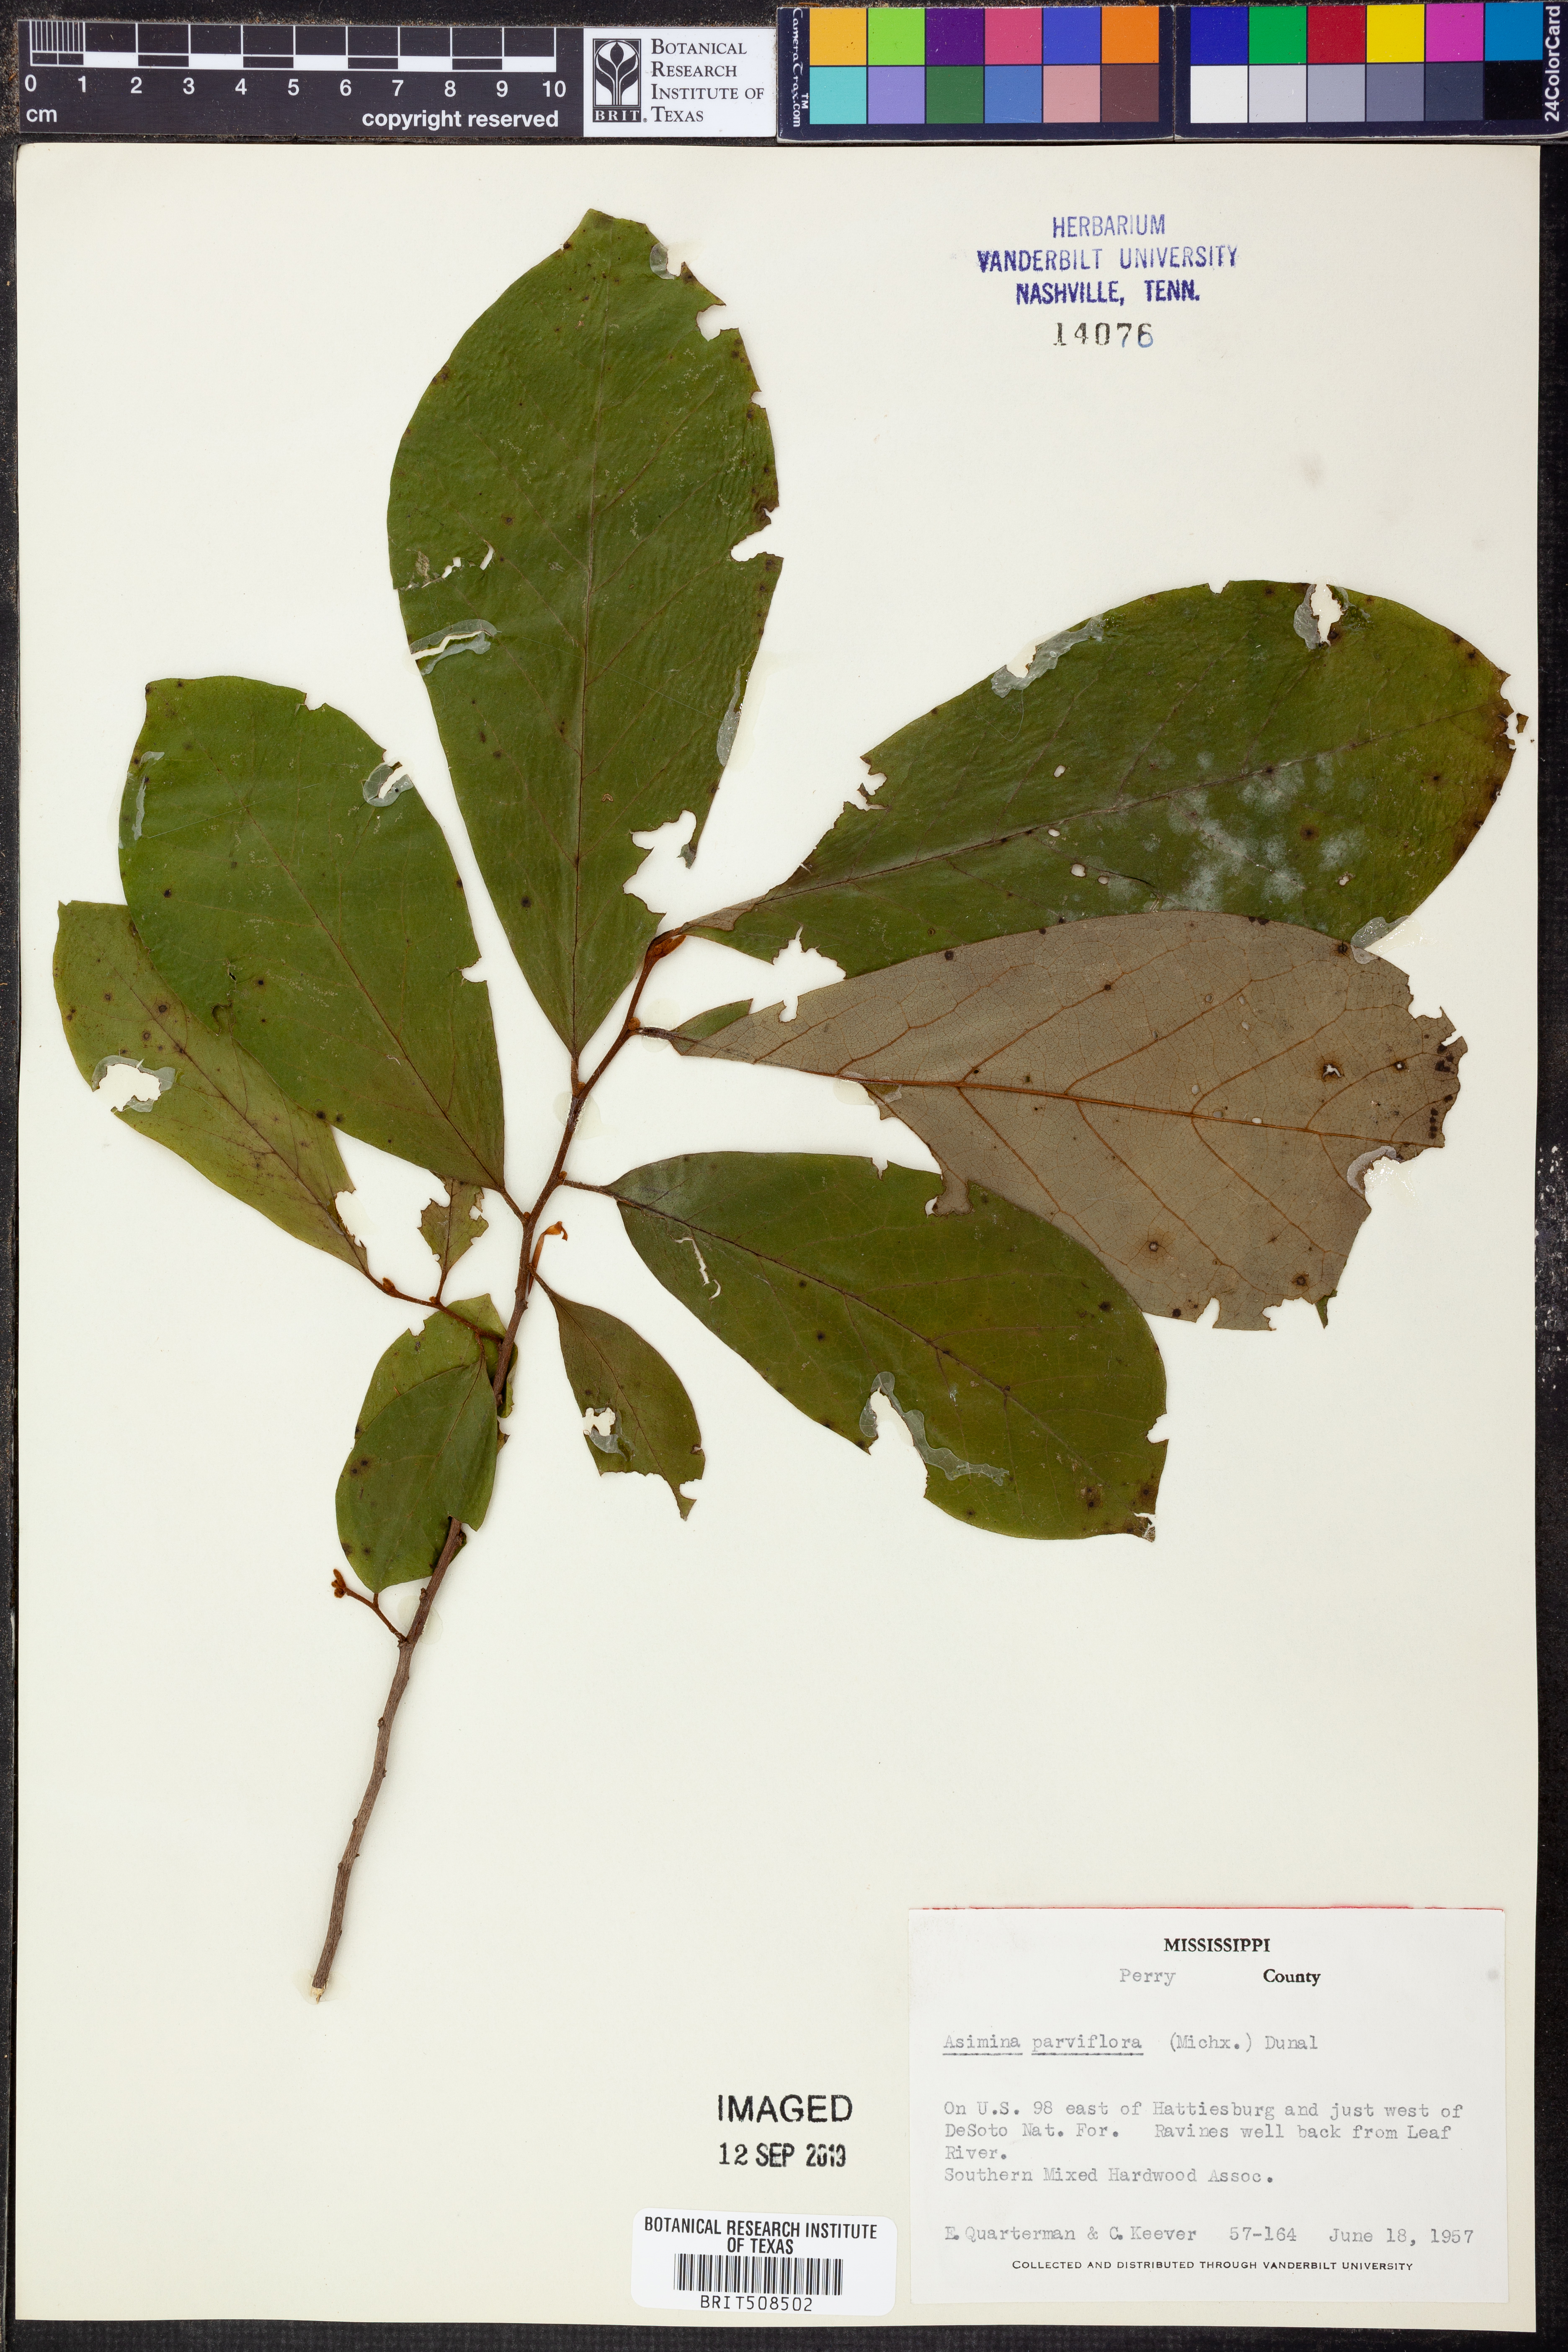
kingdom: Plantae
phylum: Tracheophyta
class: Magnoliopsida
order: Magnoliales
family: Annonaceae
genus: Asimina
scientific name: Asimina parviflora
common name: Dwarf pawpaw
